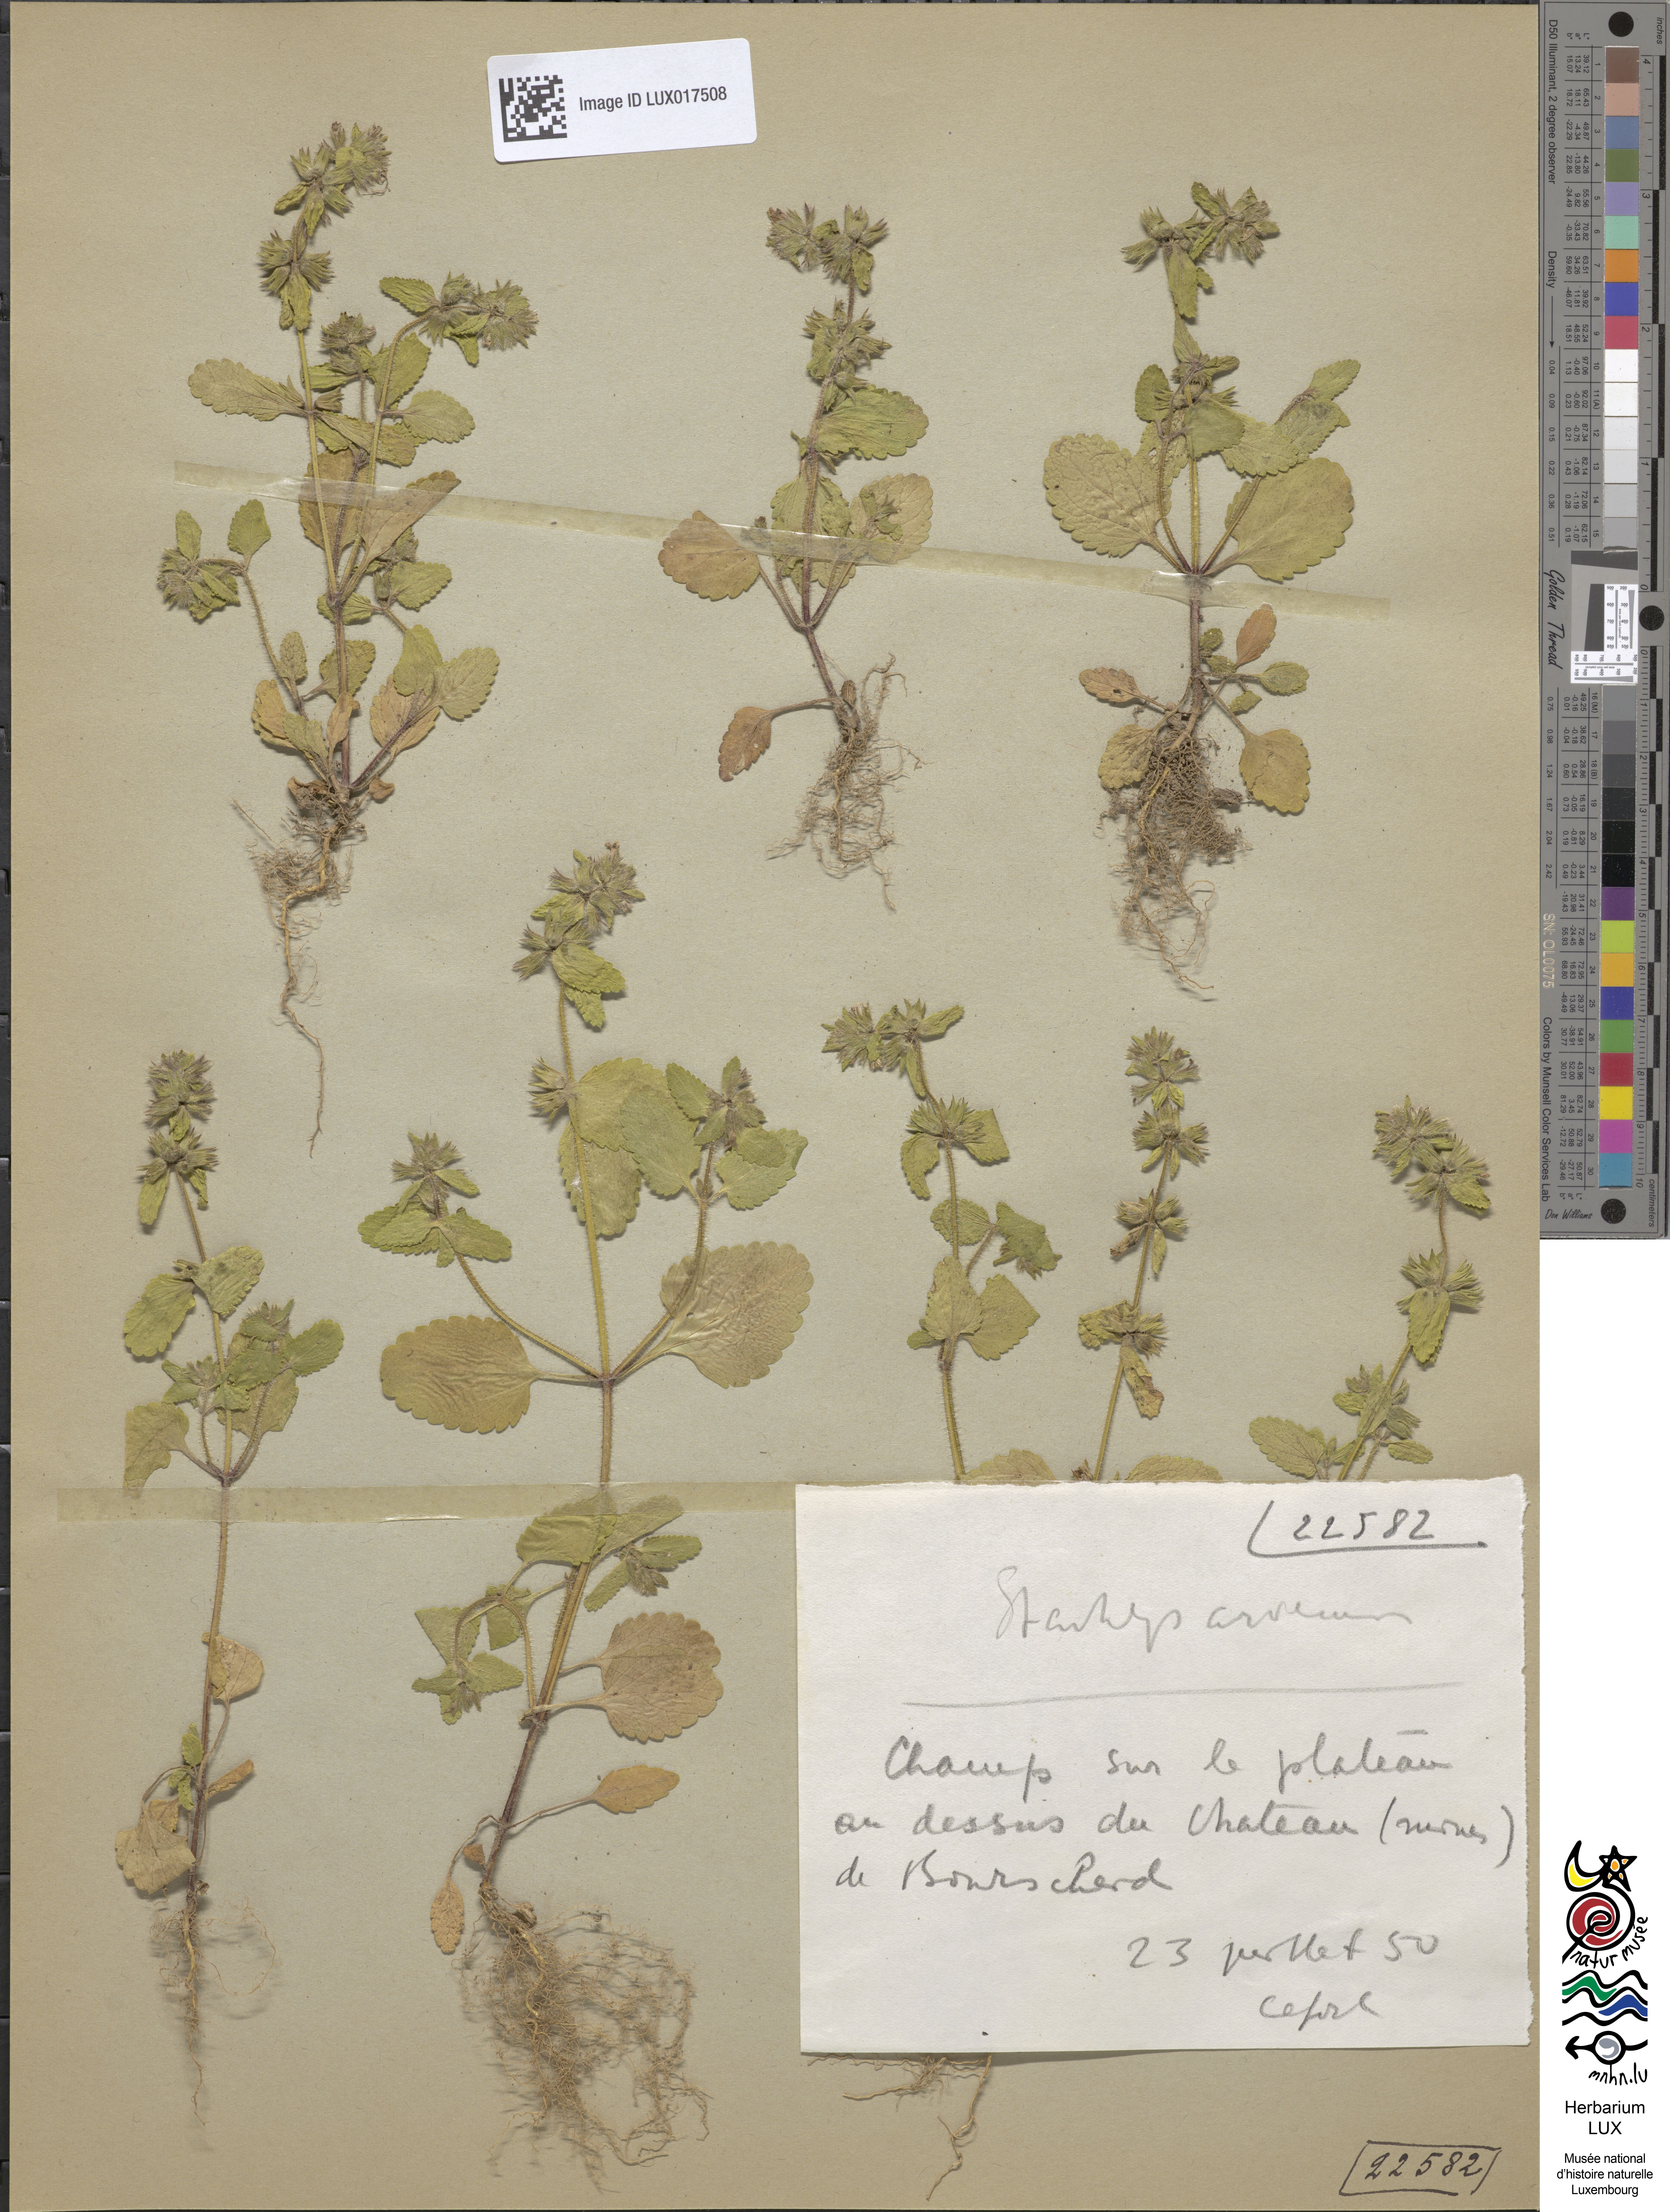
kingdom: Plantae
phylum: Tracheophyta
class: Magnoliopsida
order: Lamiales
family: Lamiaceae
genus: Stachys
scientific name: Stachys arvensis
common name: Field woundwort
